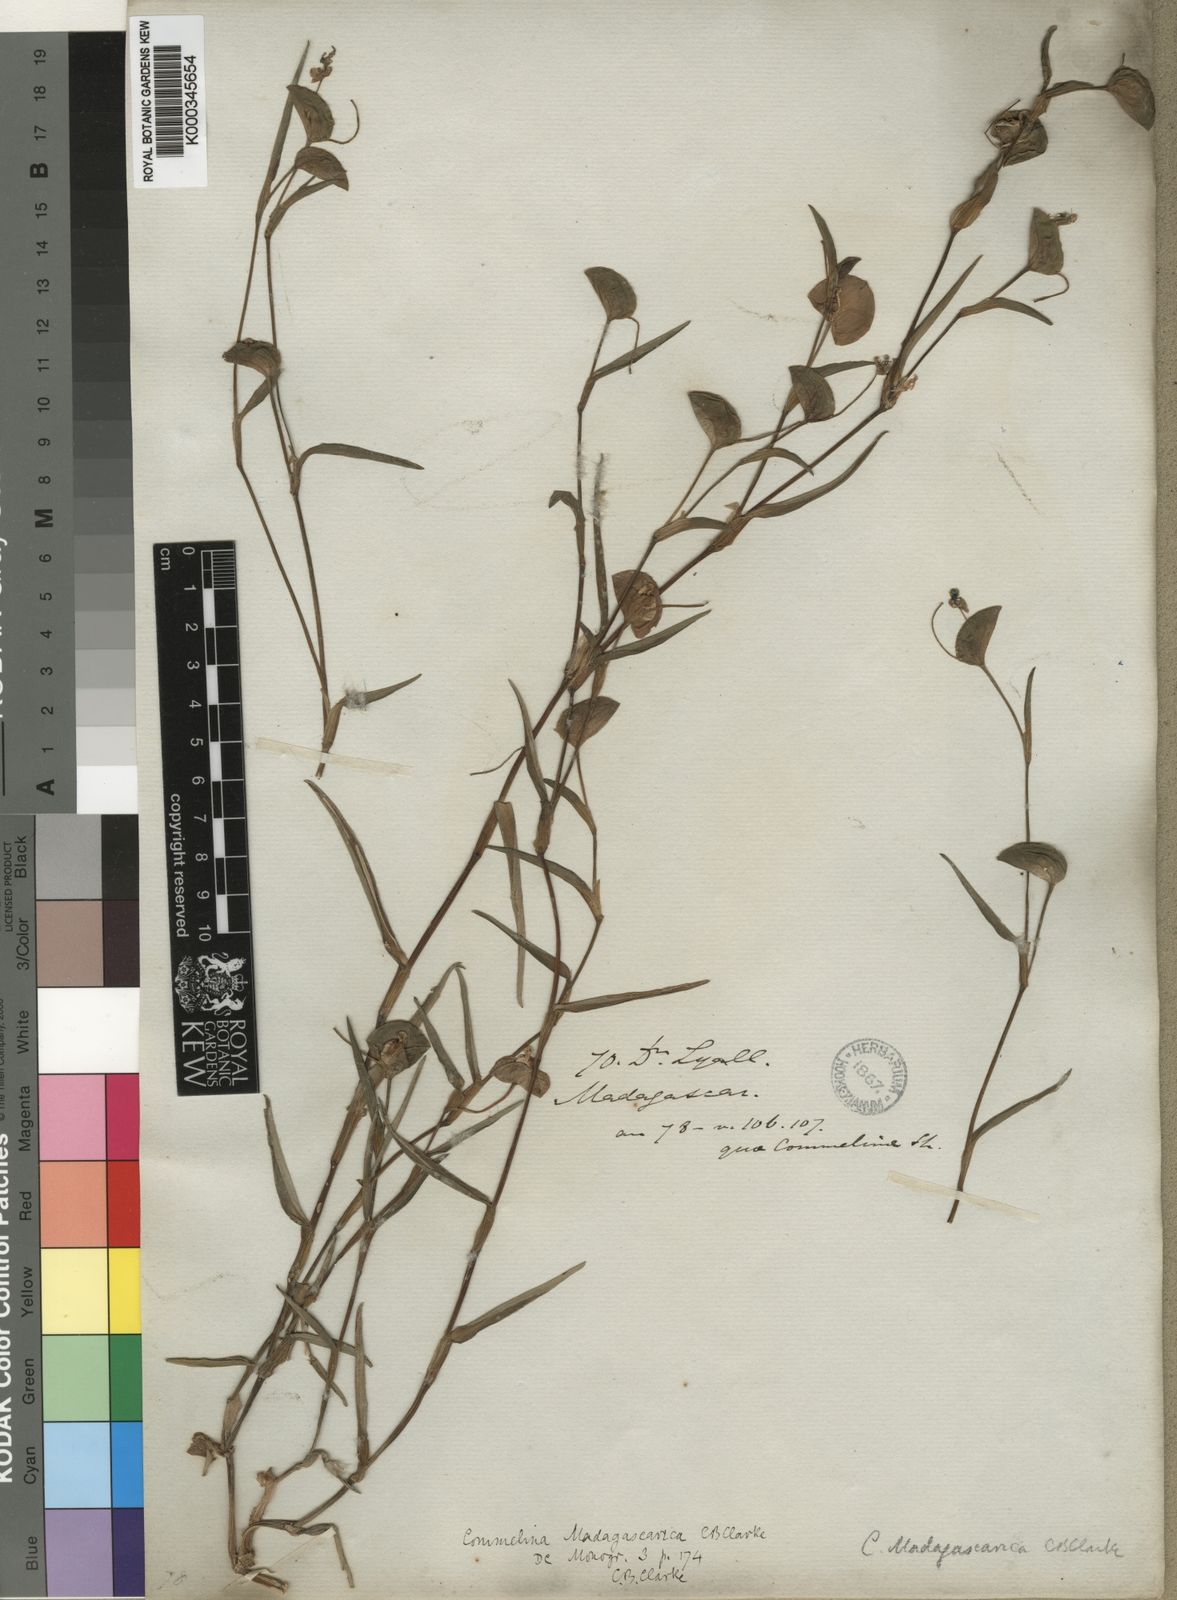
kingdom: Plantae
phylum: Tracheophyta
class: Liliopsida
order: Commelinales
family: Commelinaceae
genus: Commelina
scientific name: Commelina madagascarica
